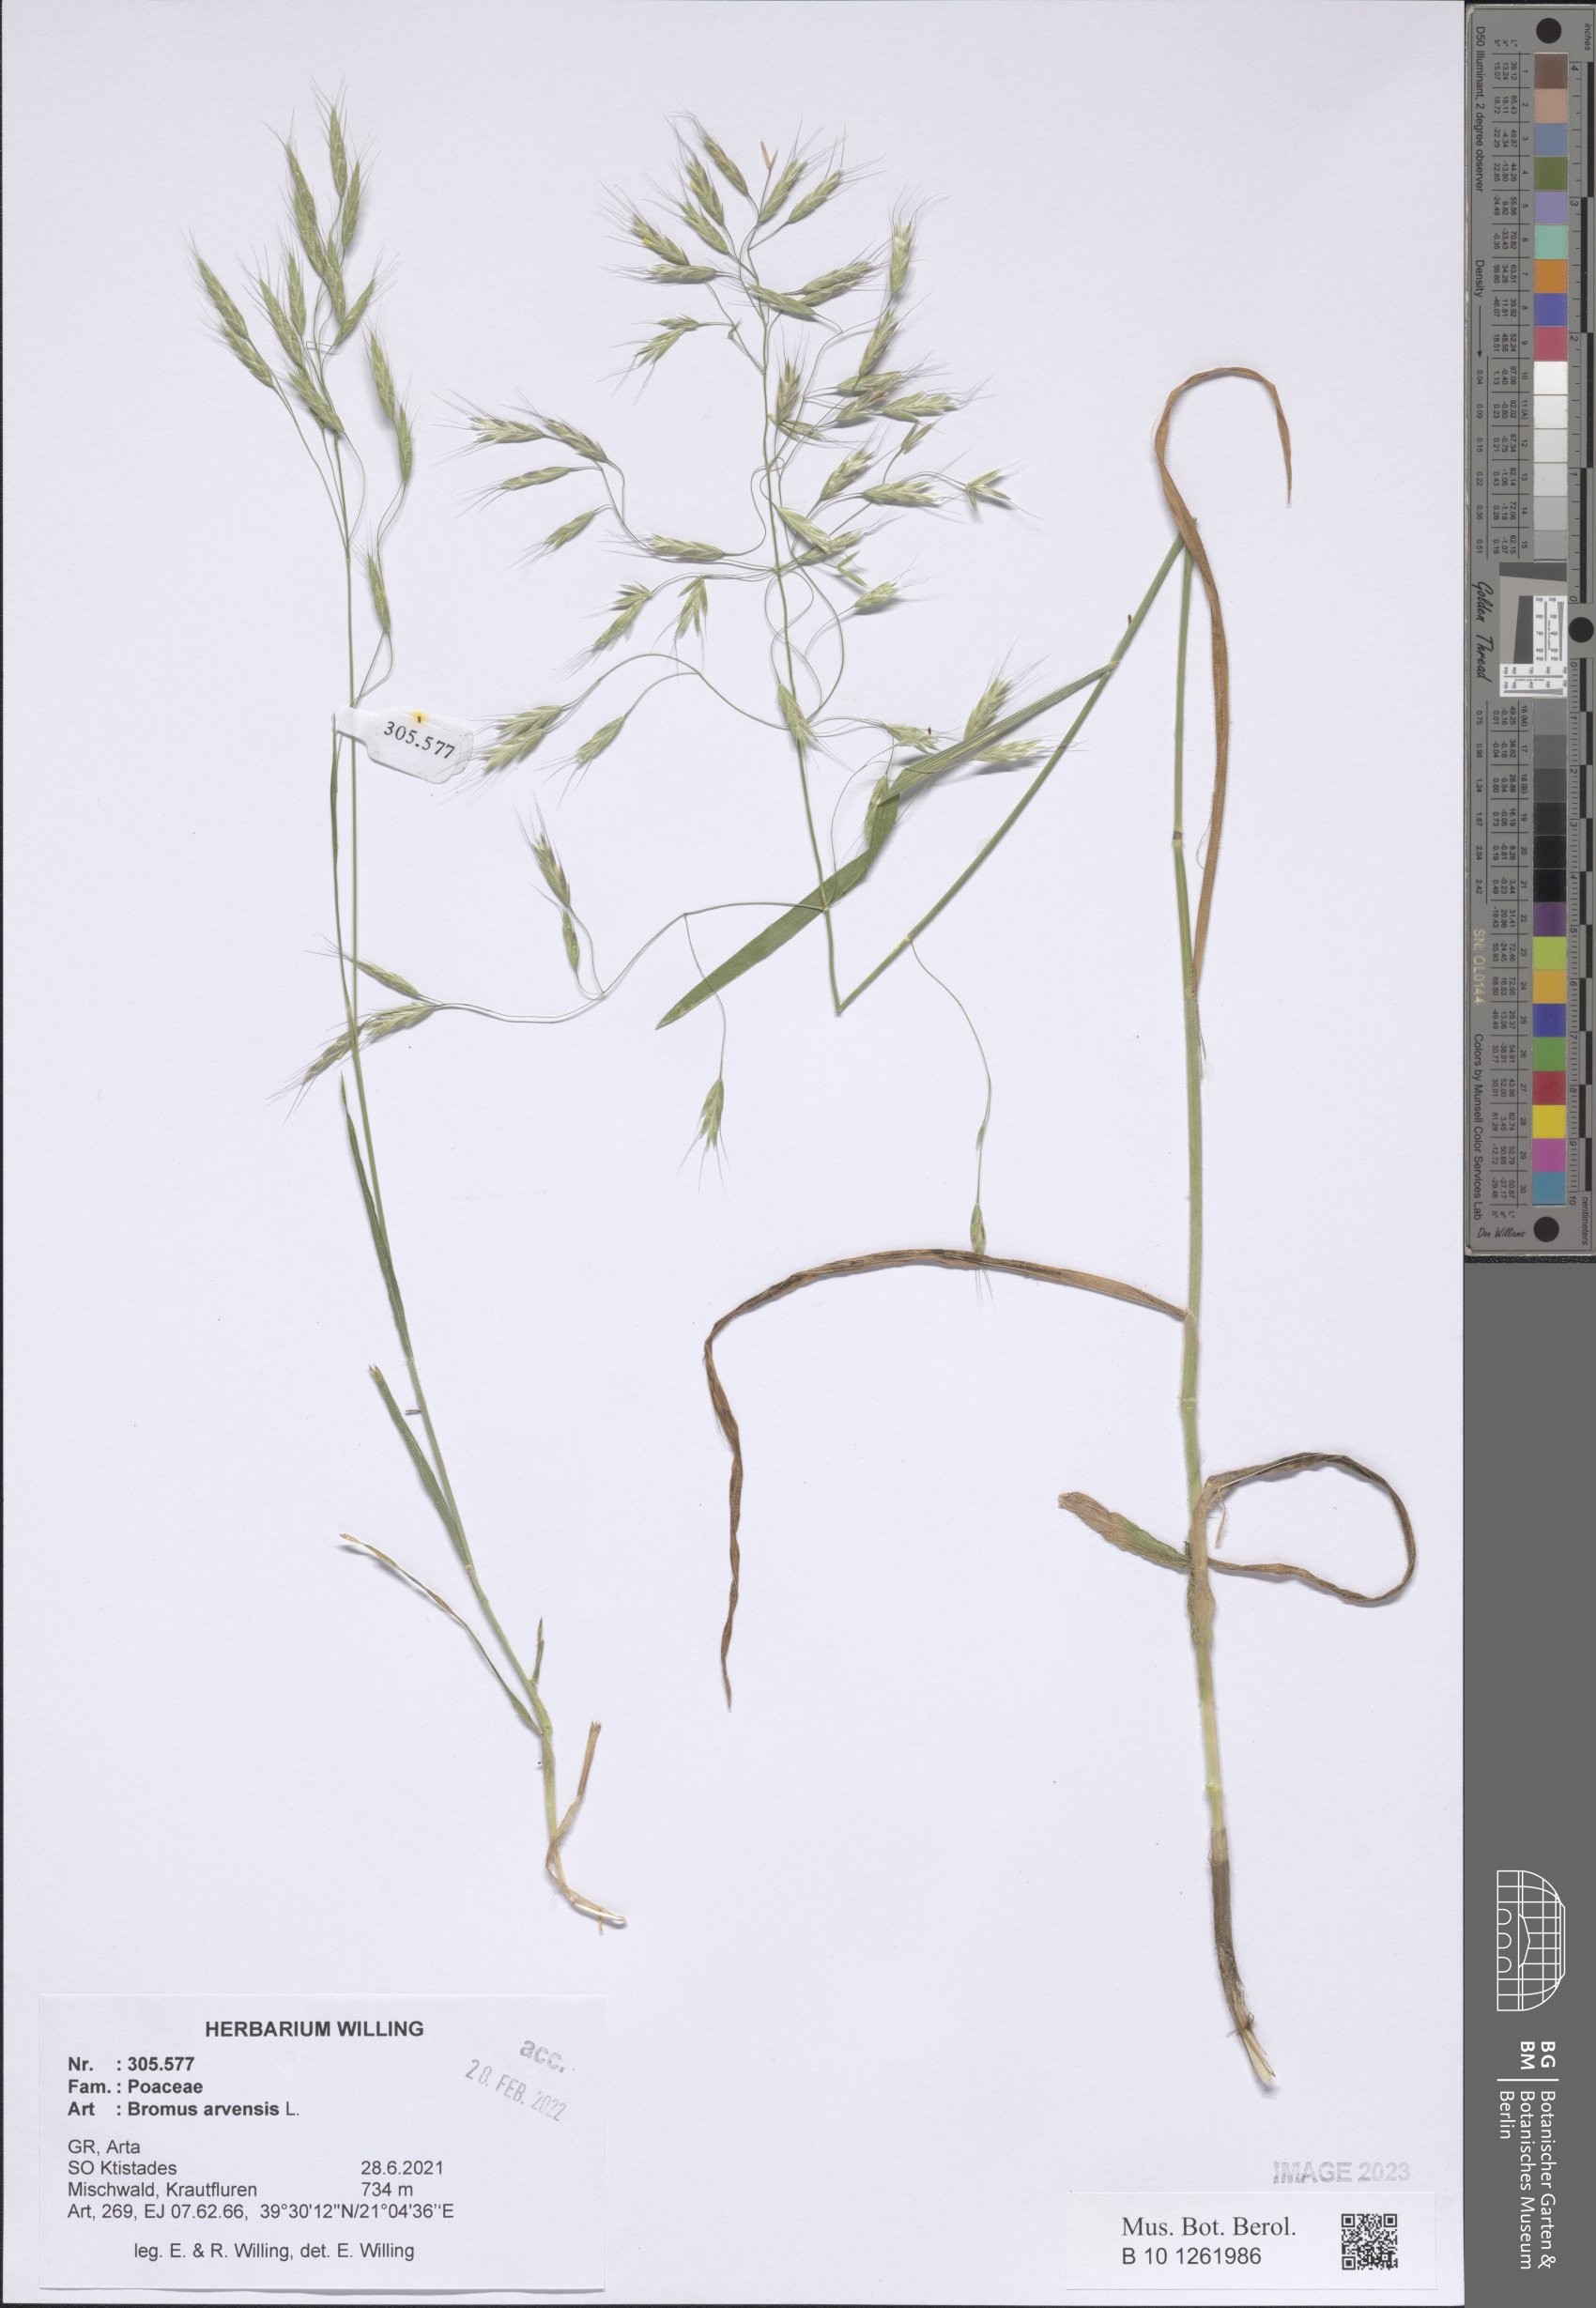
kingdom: Plantae
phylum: Tracheophyta
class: Liliopsida
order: Poales
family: Poaceae
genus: Bromus
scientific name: Bromus arvensis
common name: Field brome
